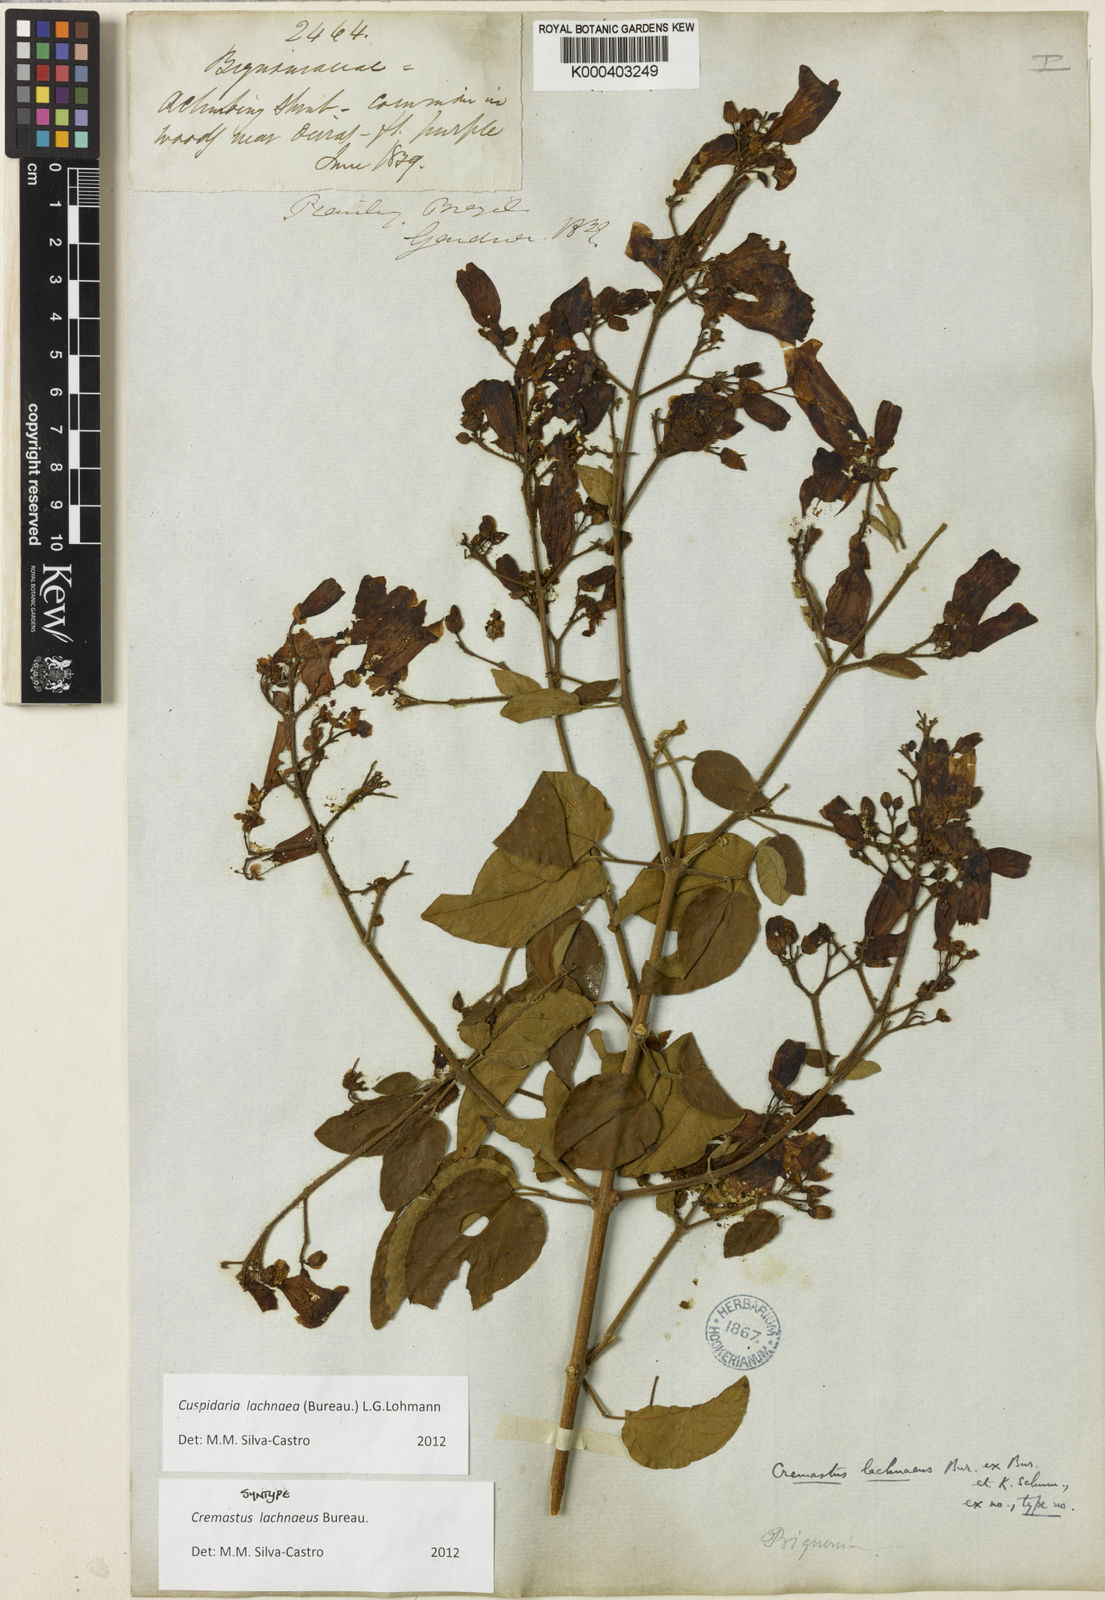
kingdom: Plantae
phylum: Tracheophyta
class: Magnoliopsida
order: Lamiales
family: Bignoniaceae
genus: Cuspidaria
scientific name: Cuspidaria lachnaea
